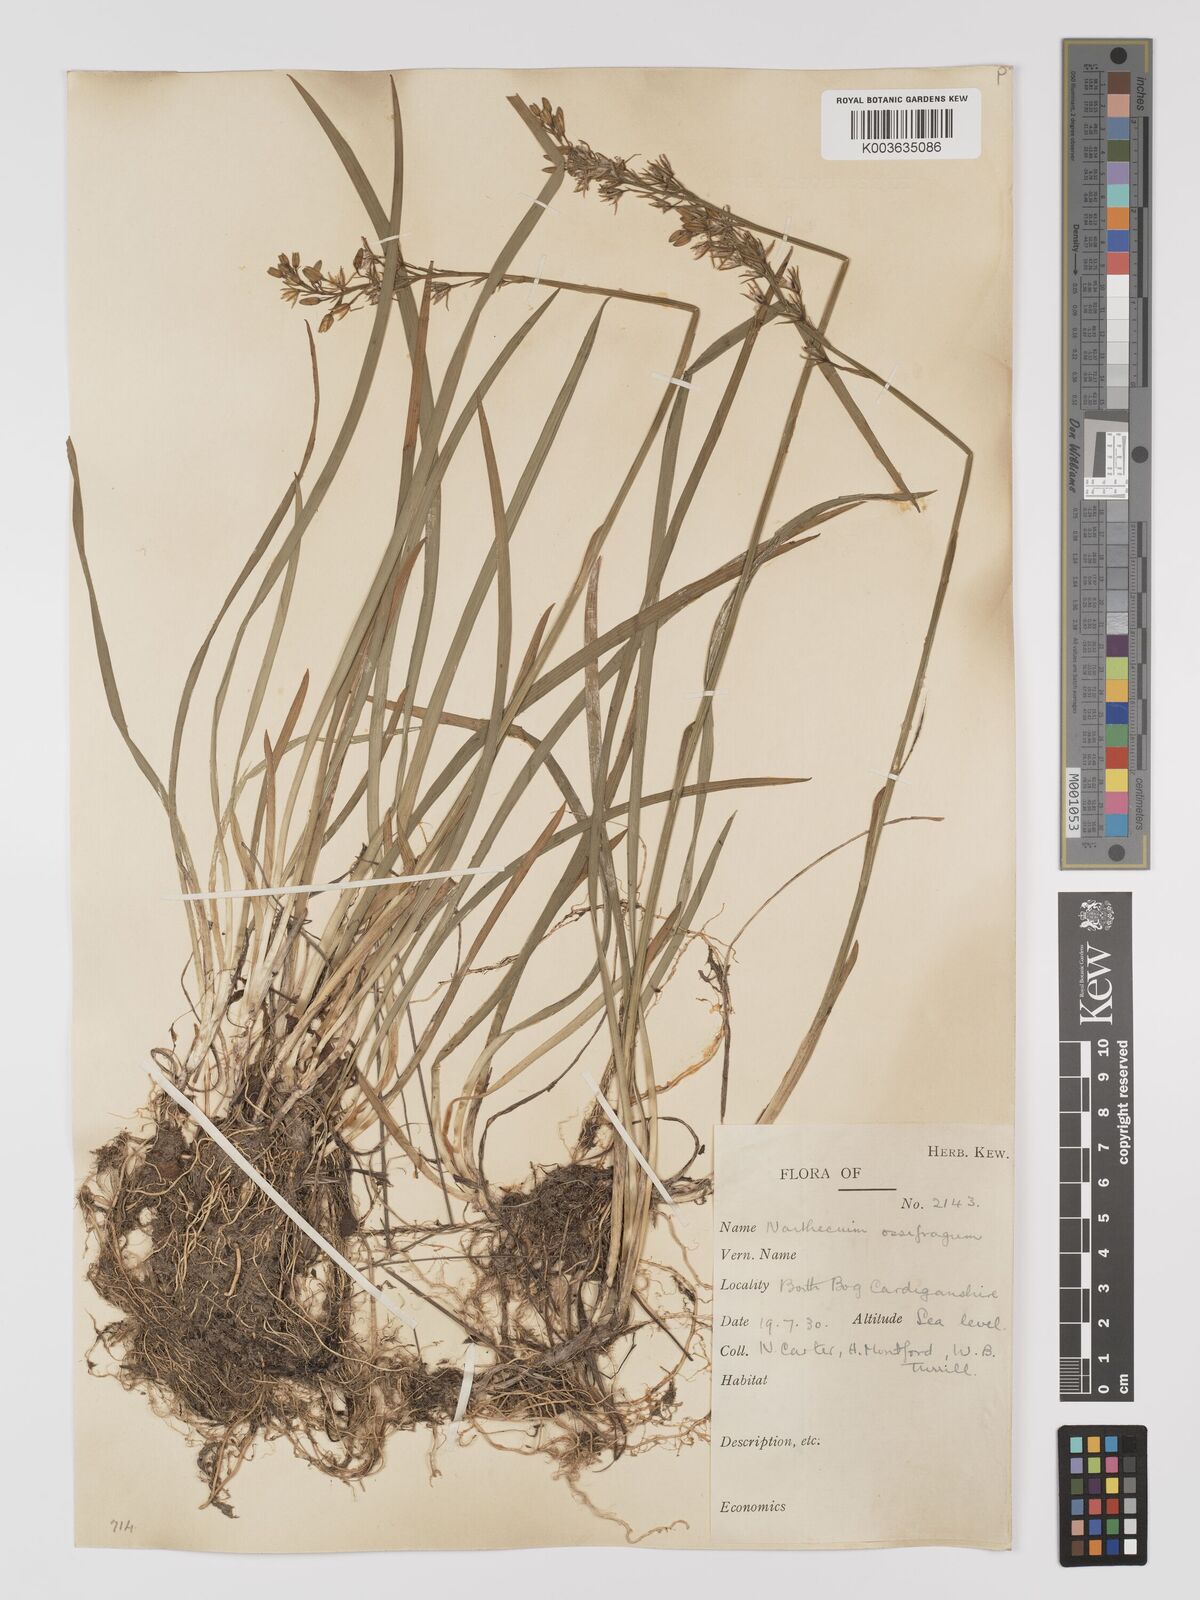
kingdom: Plantae
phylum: Tracheophyta
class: Liliopsida
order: Dioscoreales
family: Nartheciaceae
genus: Narthecium
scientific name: Narthecium
